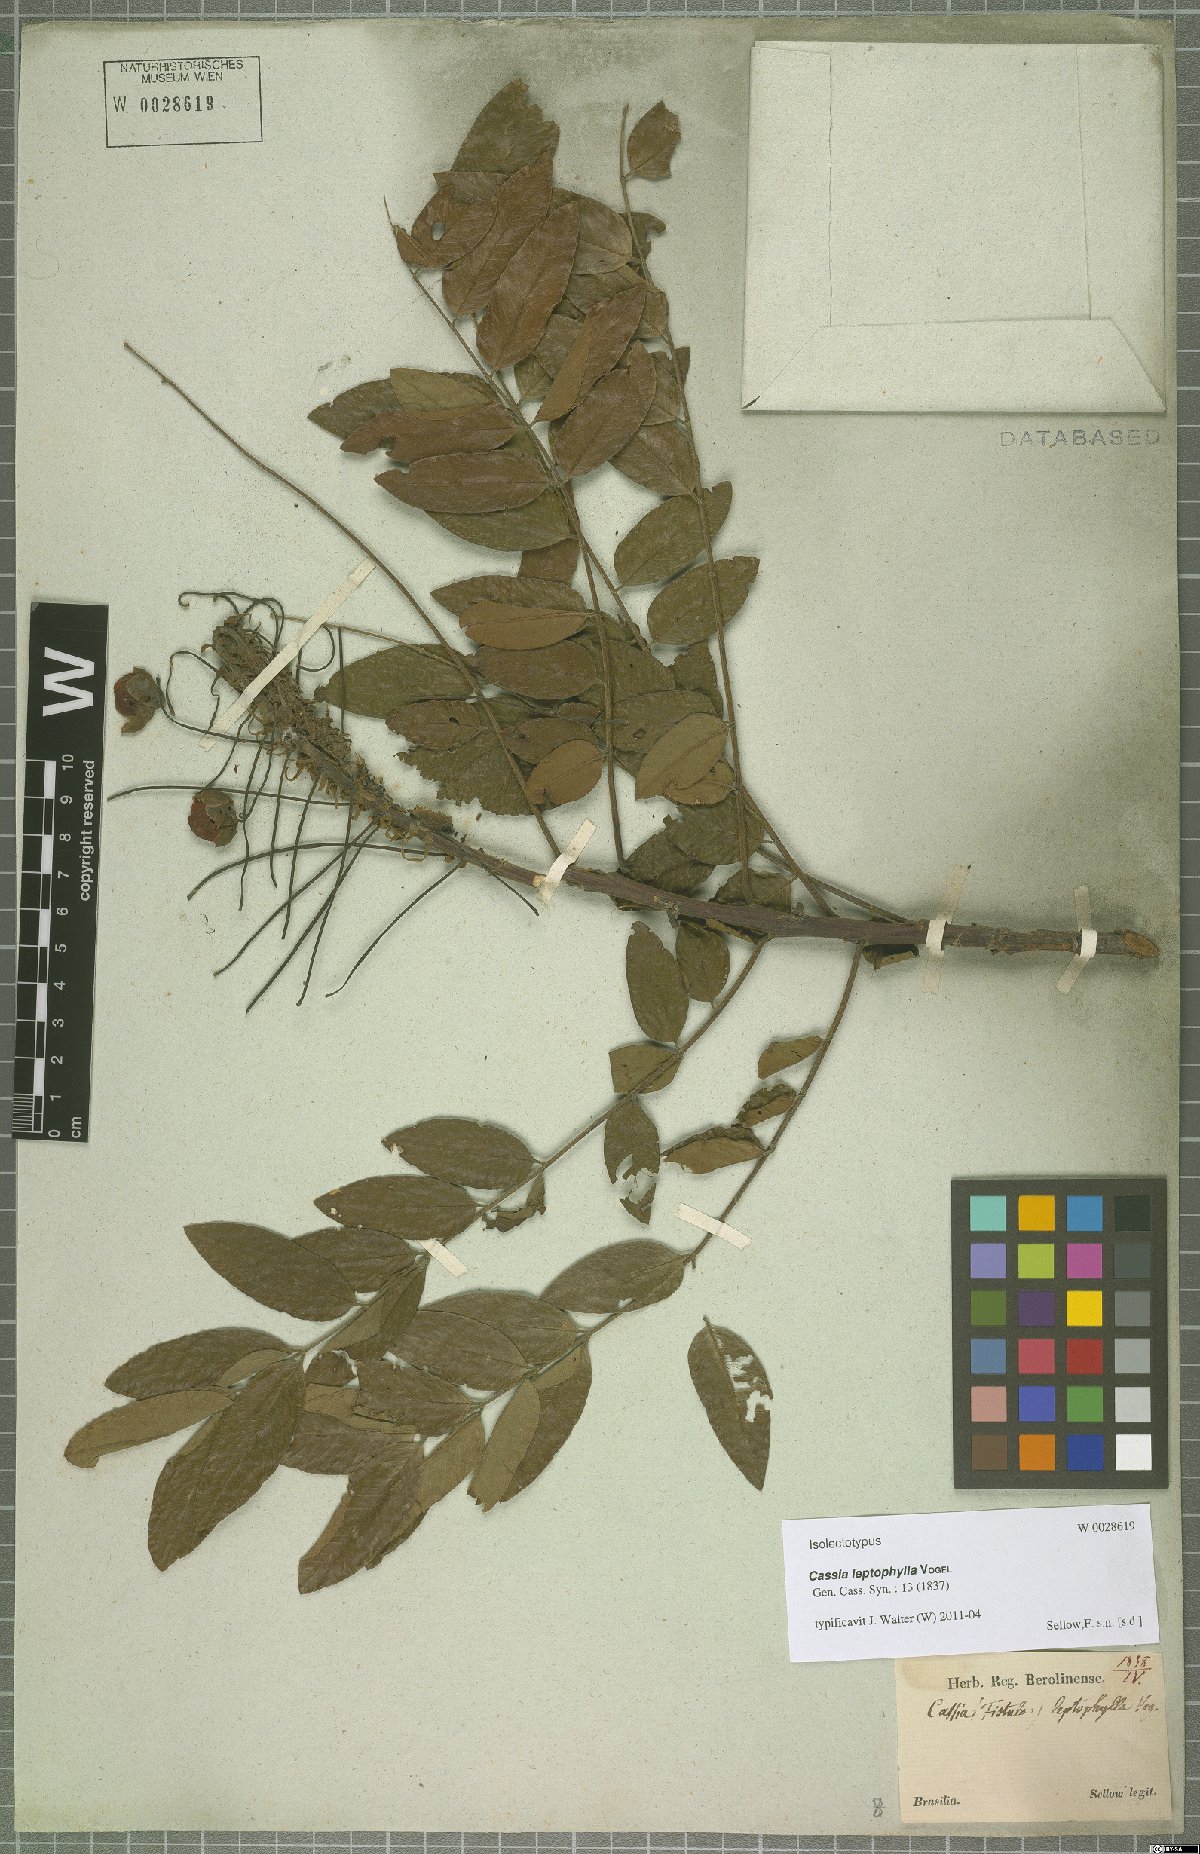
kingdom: Plantae
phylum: Tracheophyta
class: Magnoliopsida
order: Fabales
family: Fabaceae
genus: Cassia
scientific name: Cassia leptophylla
